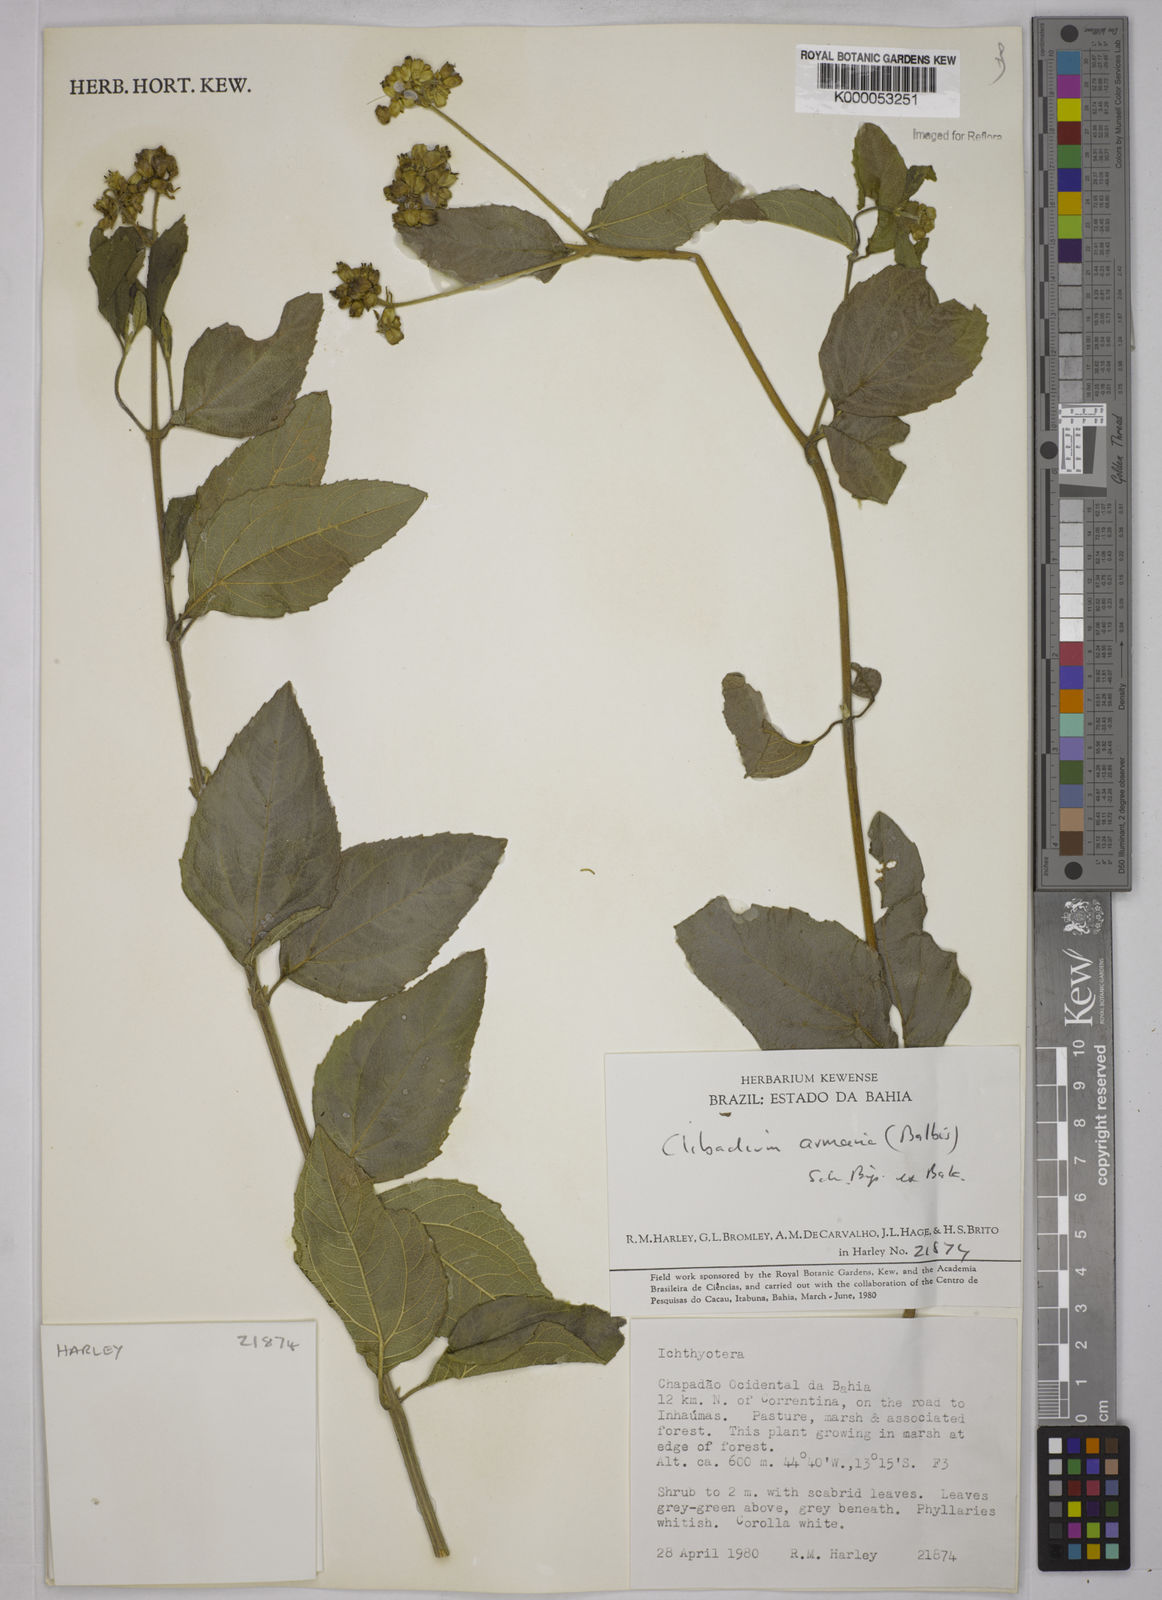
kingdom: Plantae
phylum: Tracheophyta
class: Magnoliopsida
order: Asterales
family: Asteraceae
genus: Clibadium
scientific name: Clibadium armanii
